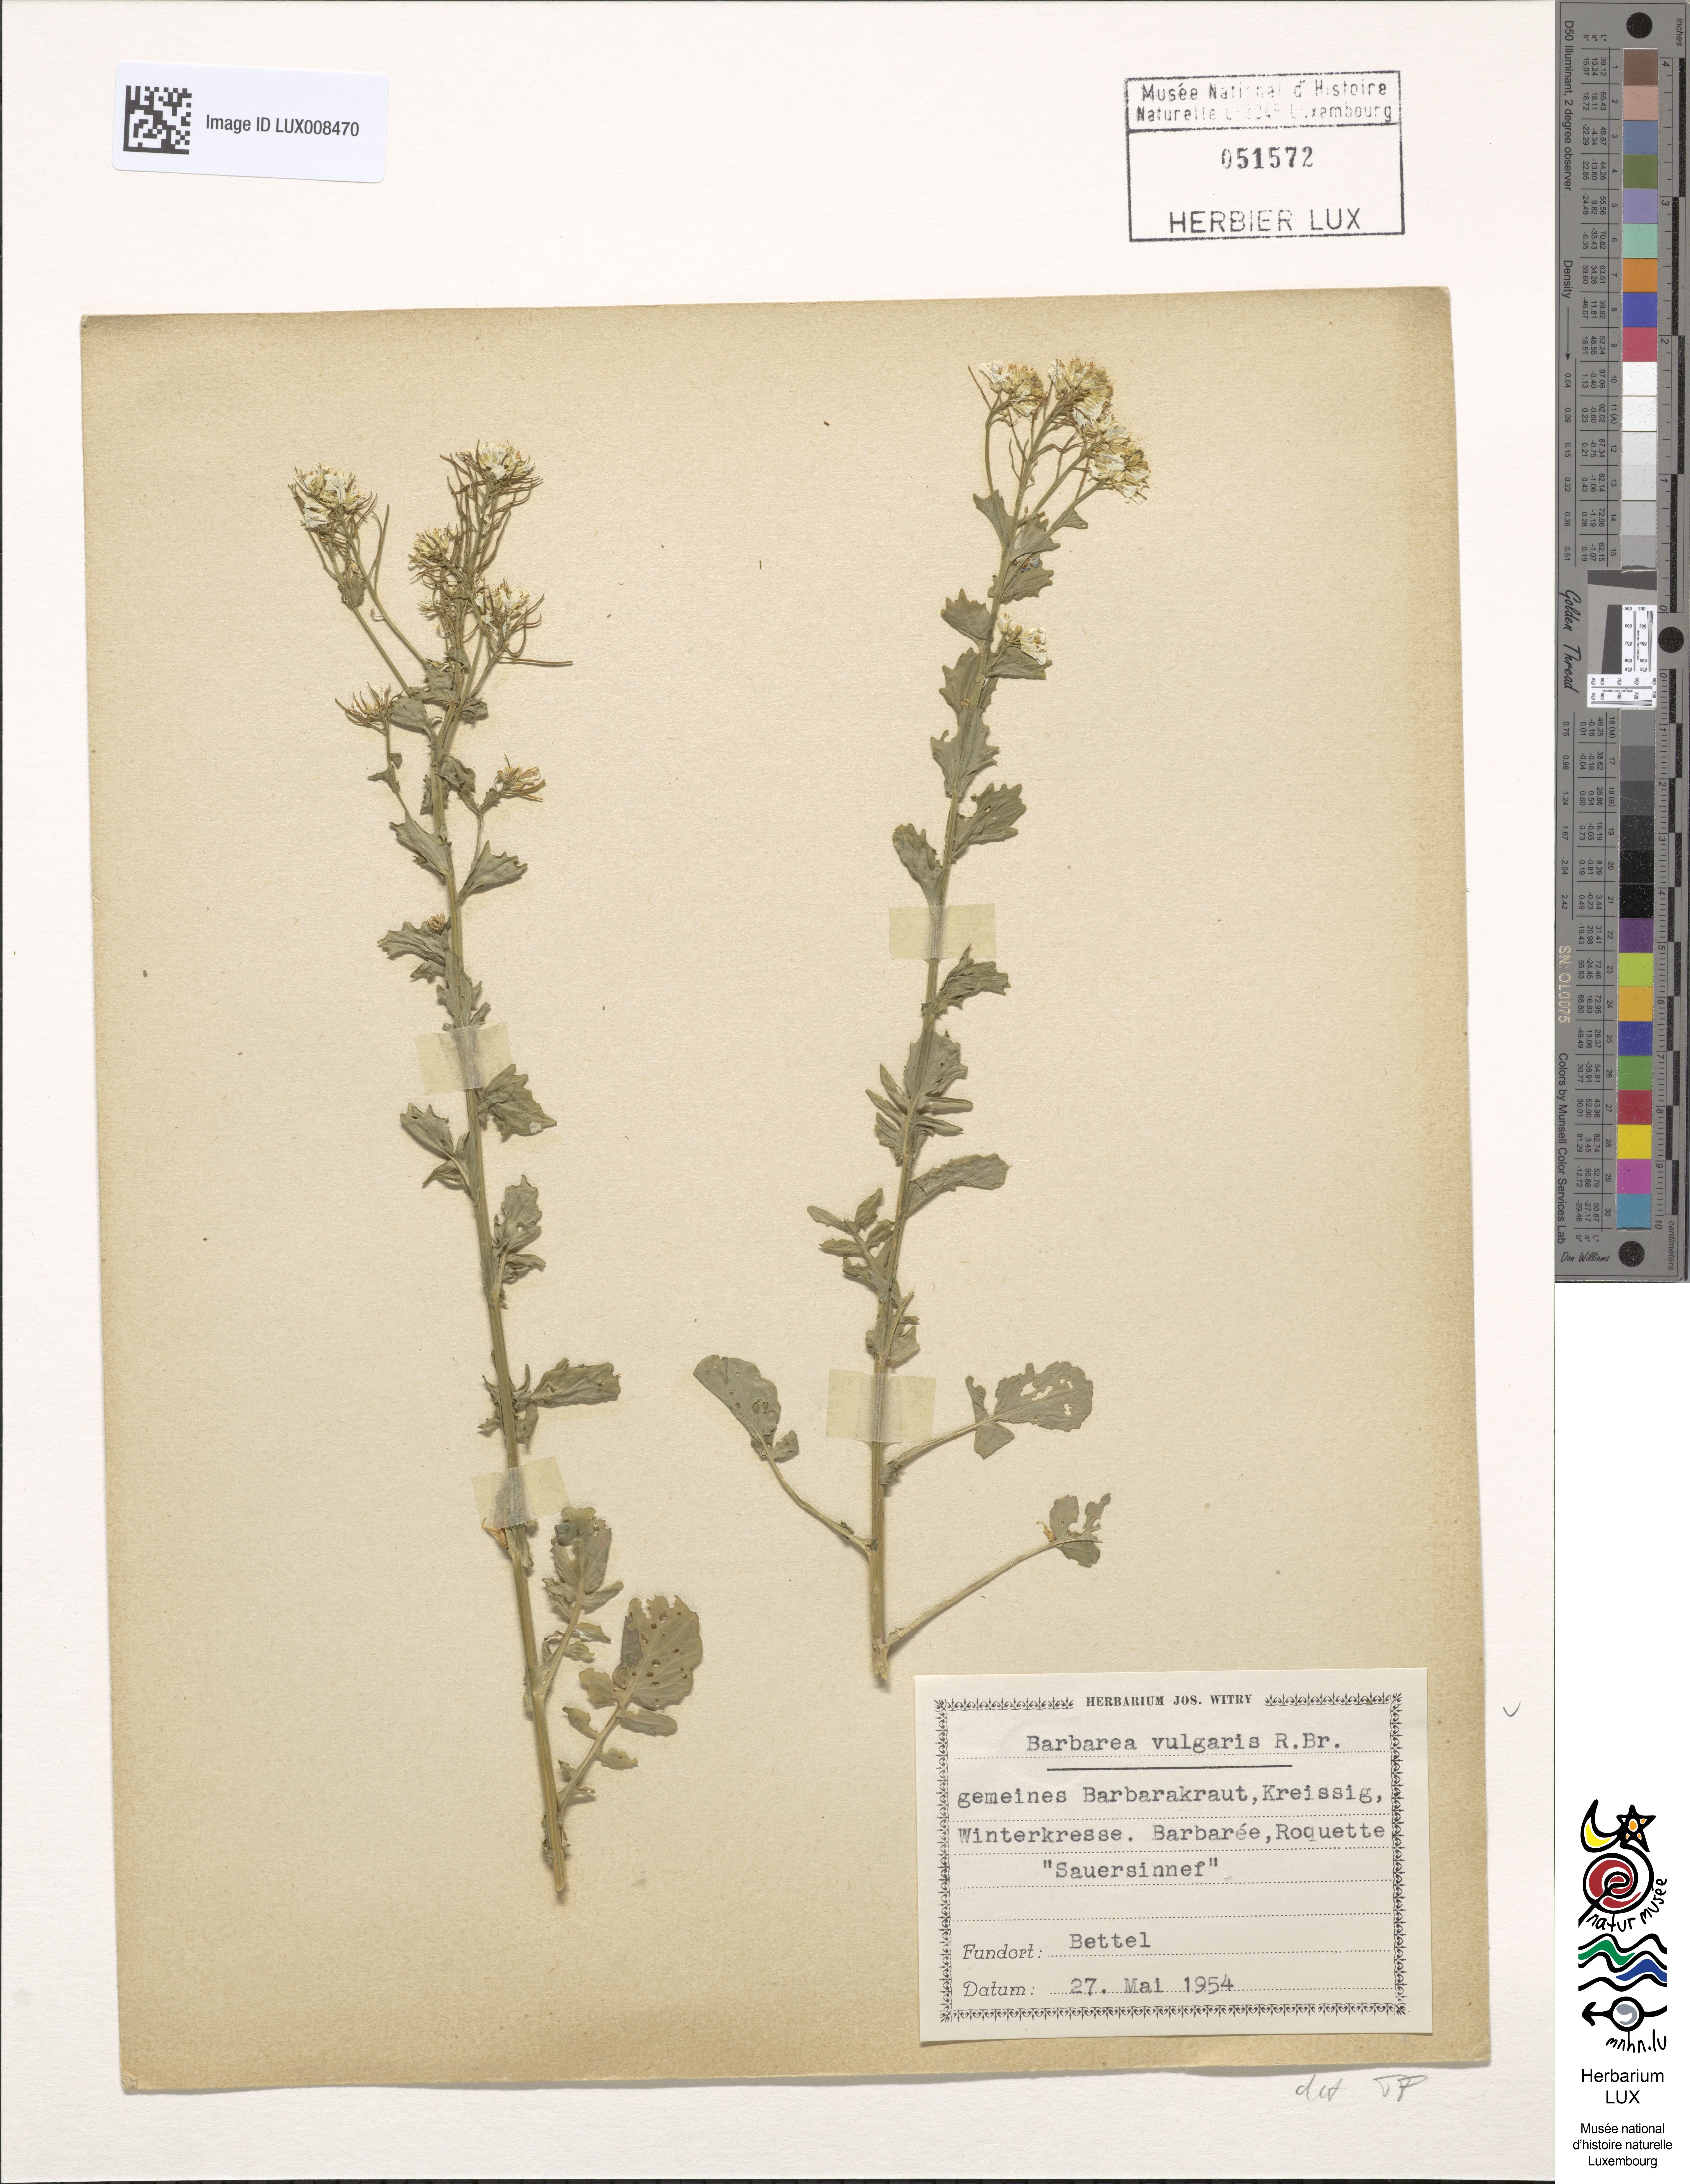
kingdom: Plantae
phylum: Tracheophyta
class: Magnoliopsida
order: Brassicales
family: Brassicaceae
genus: Barbarea
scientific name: Barbarea vulgaris
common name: Cressy-greens
